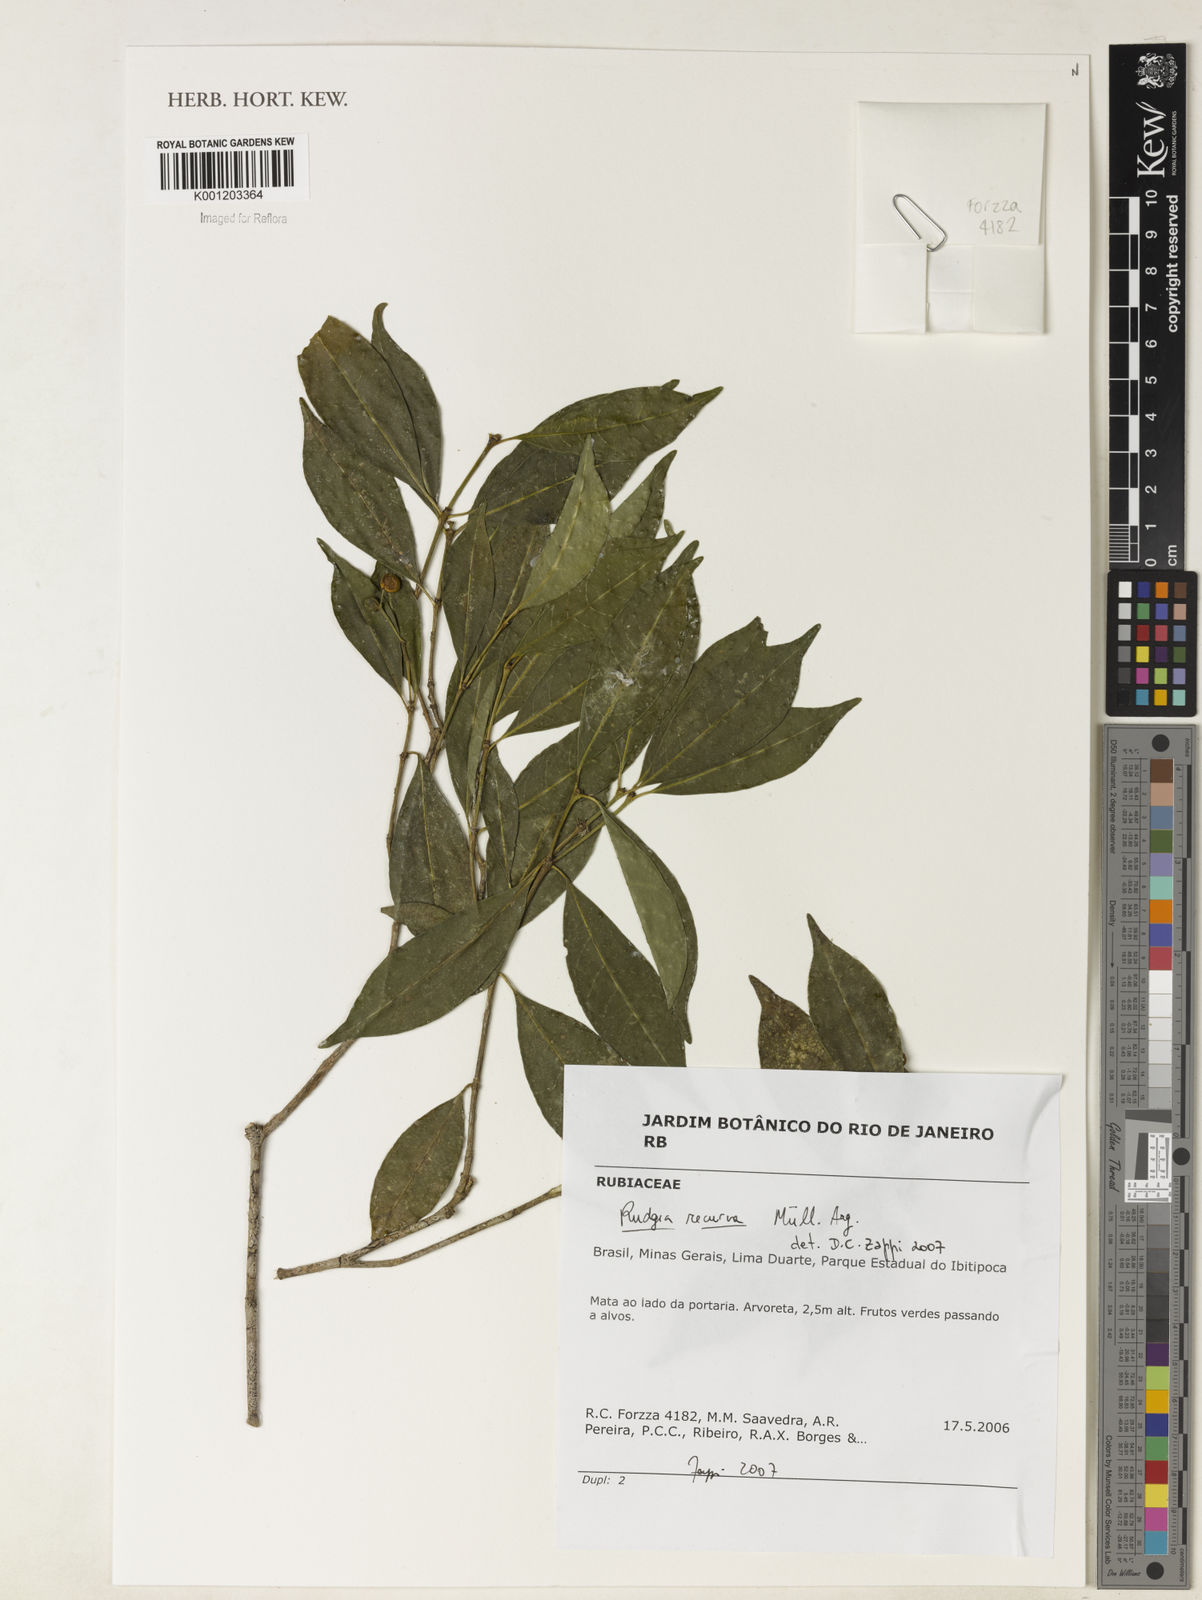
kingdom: Plantae
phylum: Tracheophyta
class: Magnoliopsida
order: Gentianales
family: Rubiaceae
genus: Rudgea
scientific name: Rudgea
